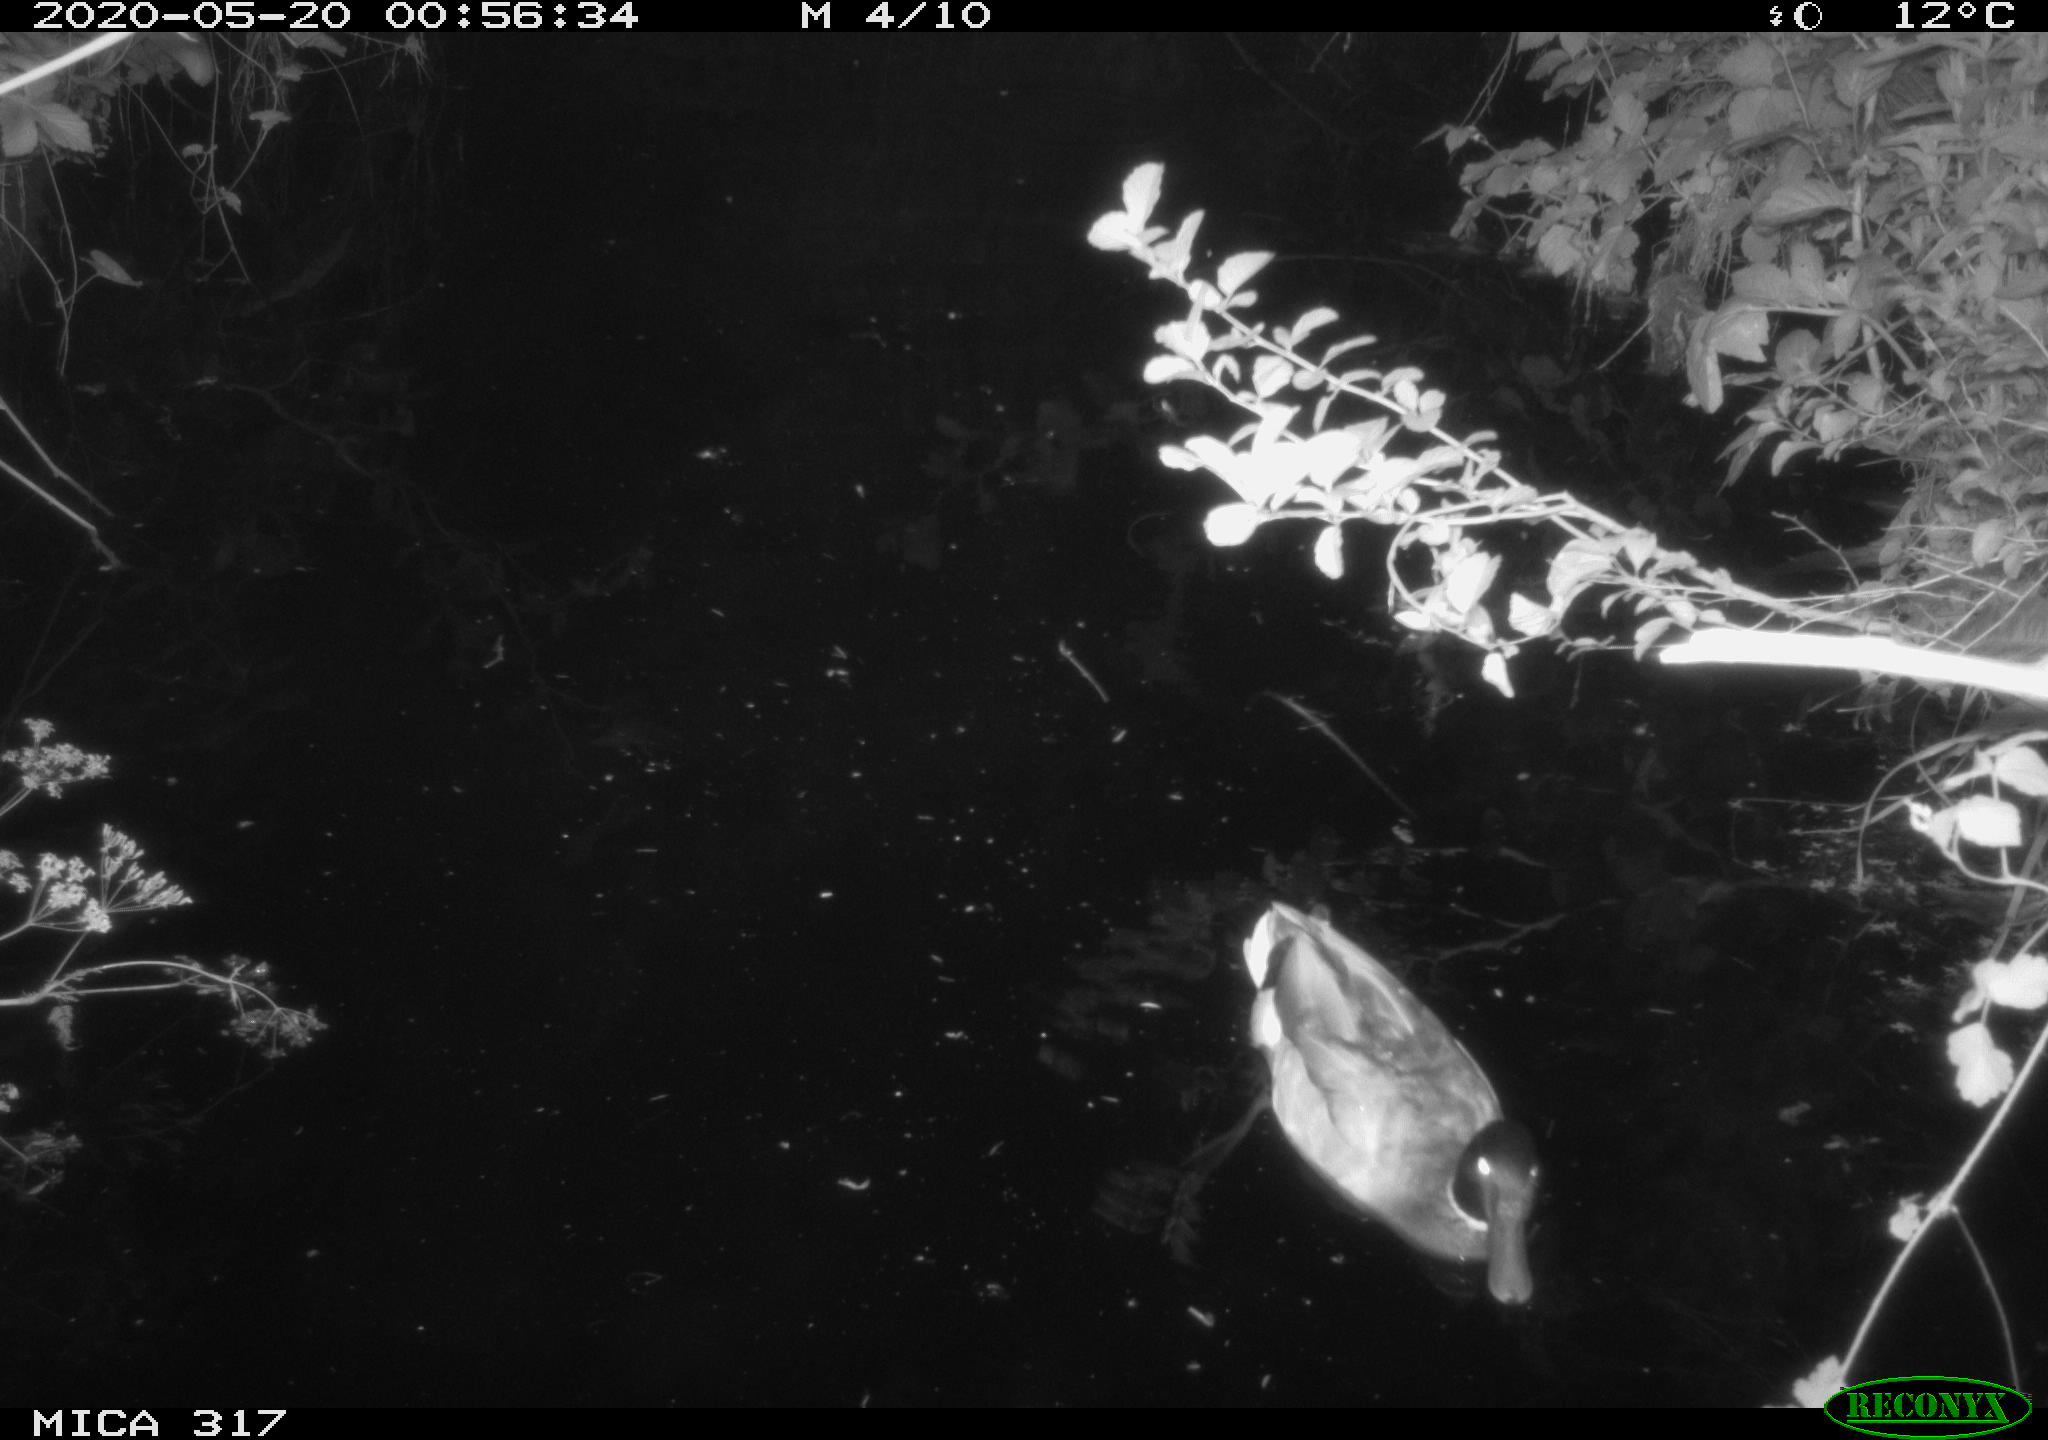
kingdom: Animalia
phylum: Chordata
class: Aves
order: Anseriformes
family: Anatidae
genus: Anas
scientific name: Anas platyrhynchos
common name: Mallard
